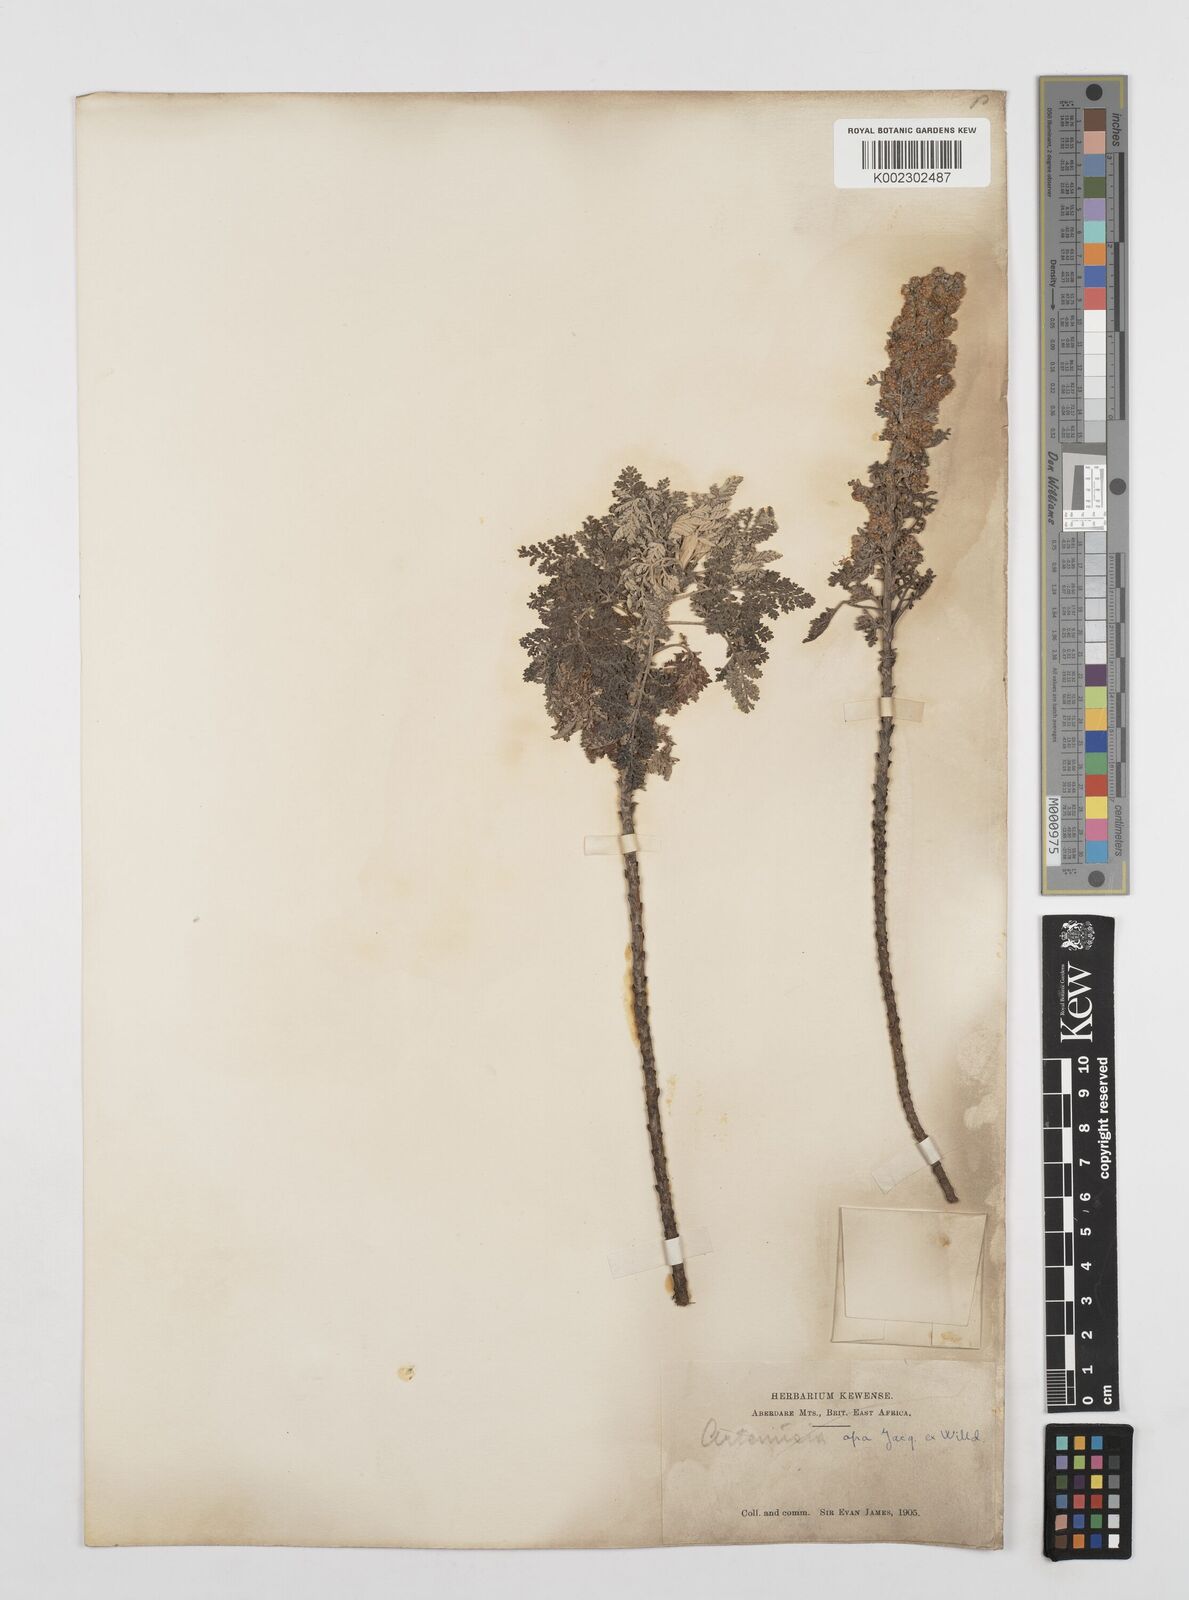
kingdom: Plantae
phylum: Tracheophyta
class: Magnoliopsida
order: Asterales
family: Asteraceae
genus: Artemisia
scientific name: Artemisia afra
